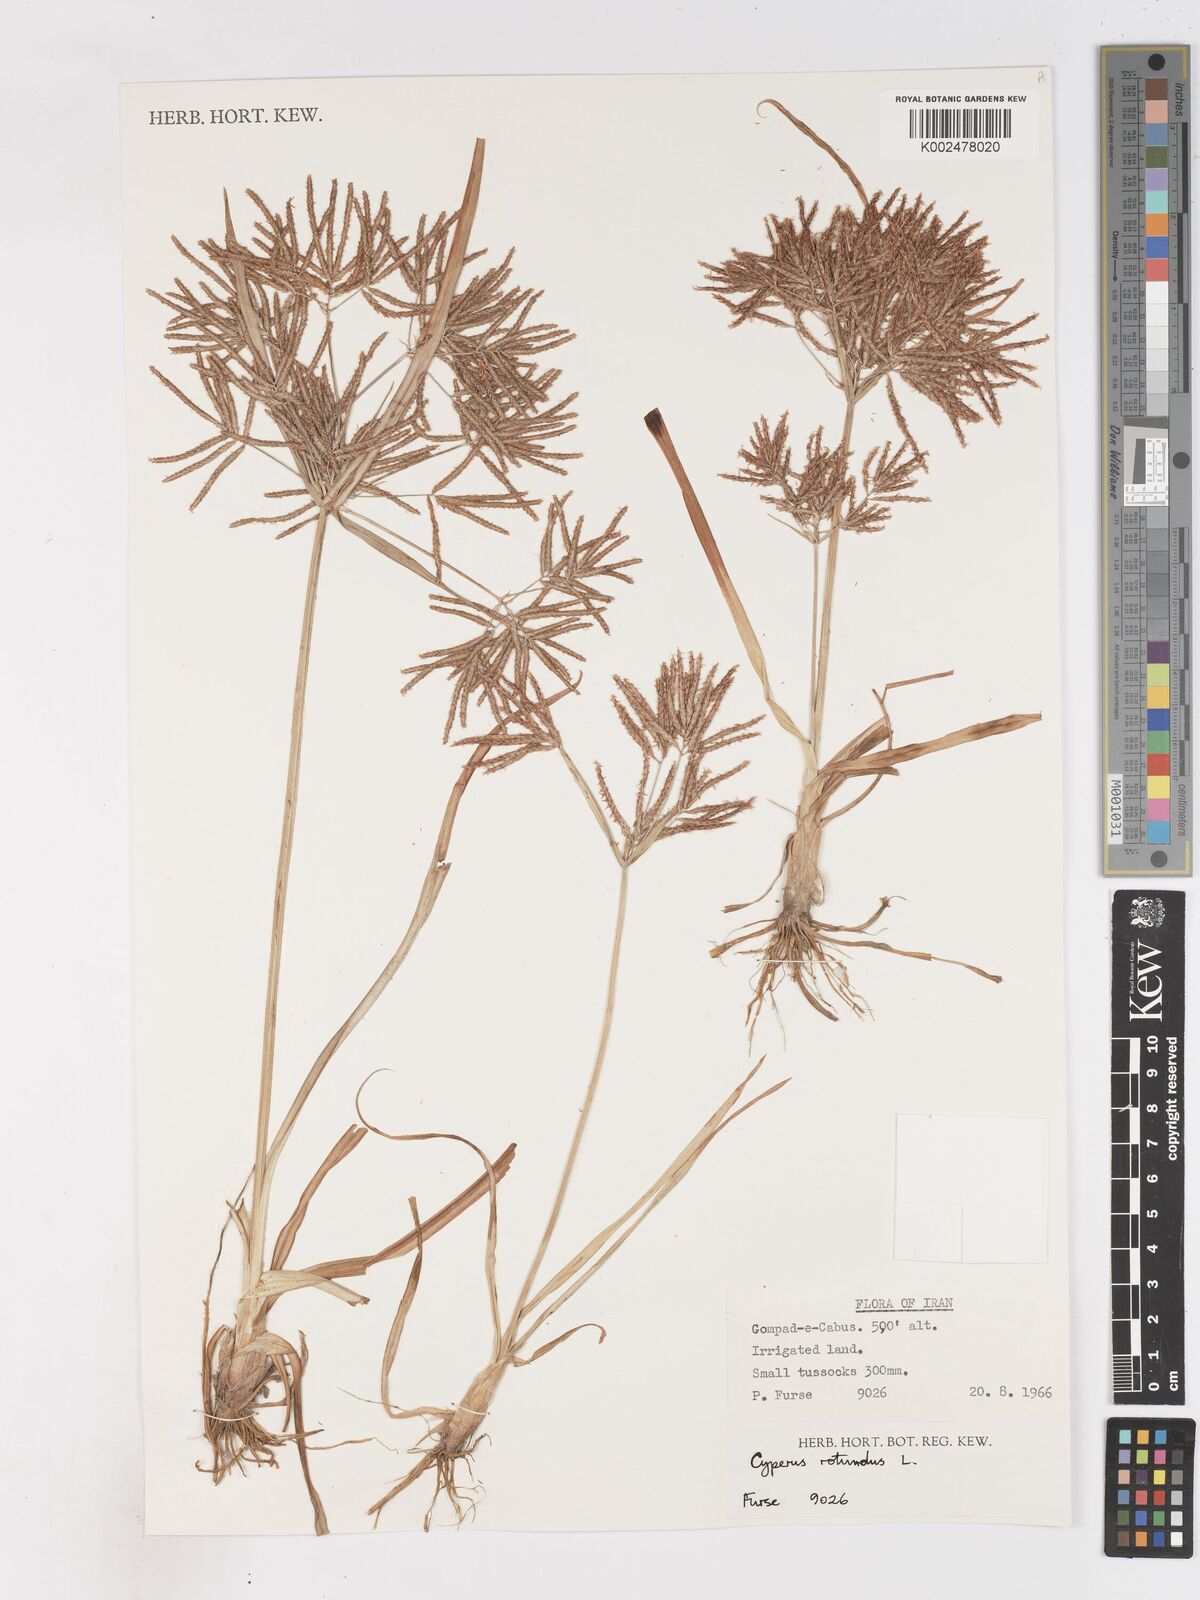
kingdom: Plantae
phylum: Tracheophyta
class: Liliopsida
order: Poales
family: Cyperaceae
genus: Cyperus
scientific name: Cyperus rotundus
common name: Nutgrass
